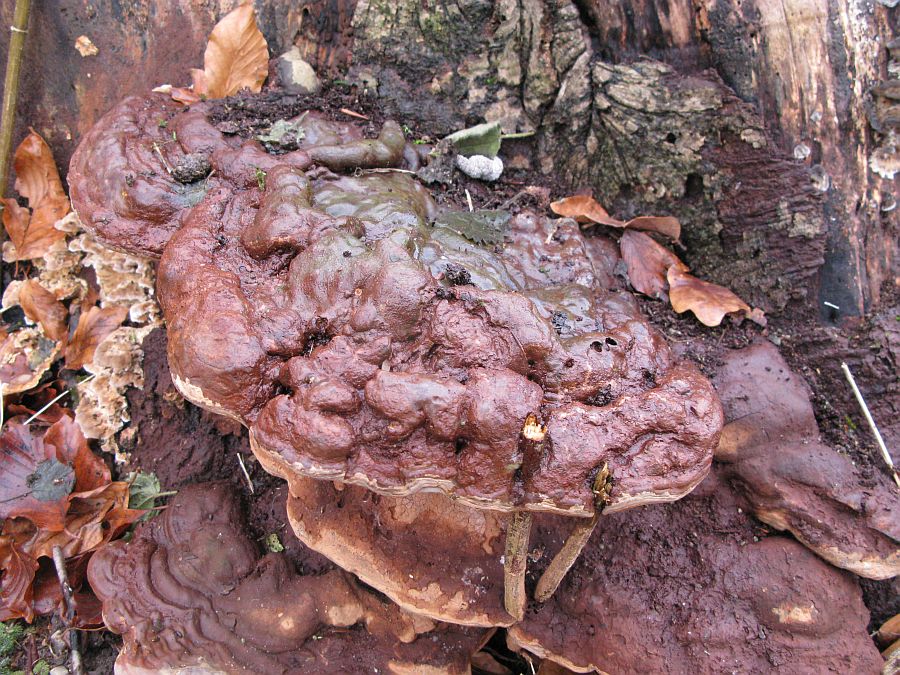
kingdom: Fungi
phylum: Basidiomycota
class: Agaricomycetes
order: Polyporales
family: Polyporaceae
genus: Ganoderma
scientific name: Ganoderma pfeifferi
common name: kobberrød lakporesvamp
